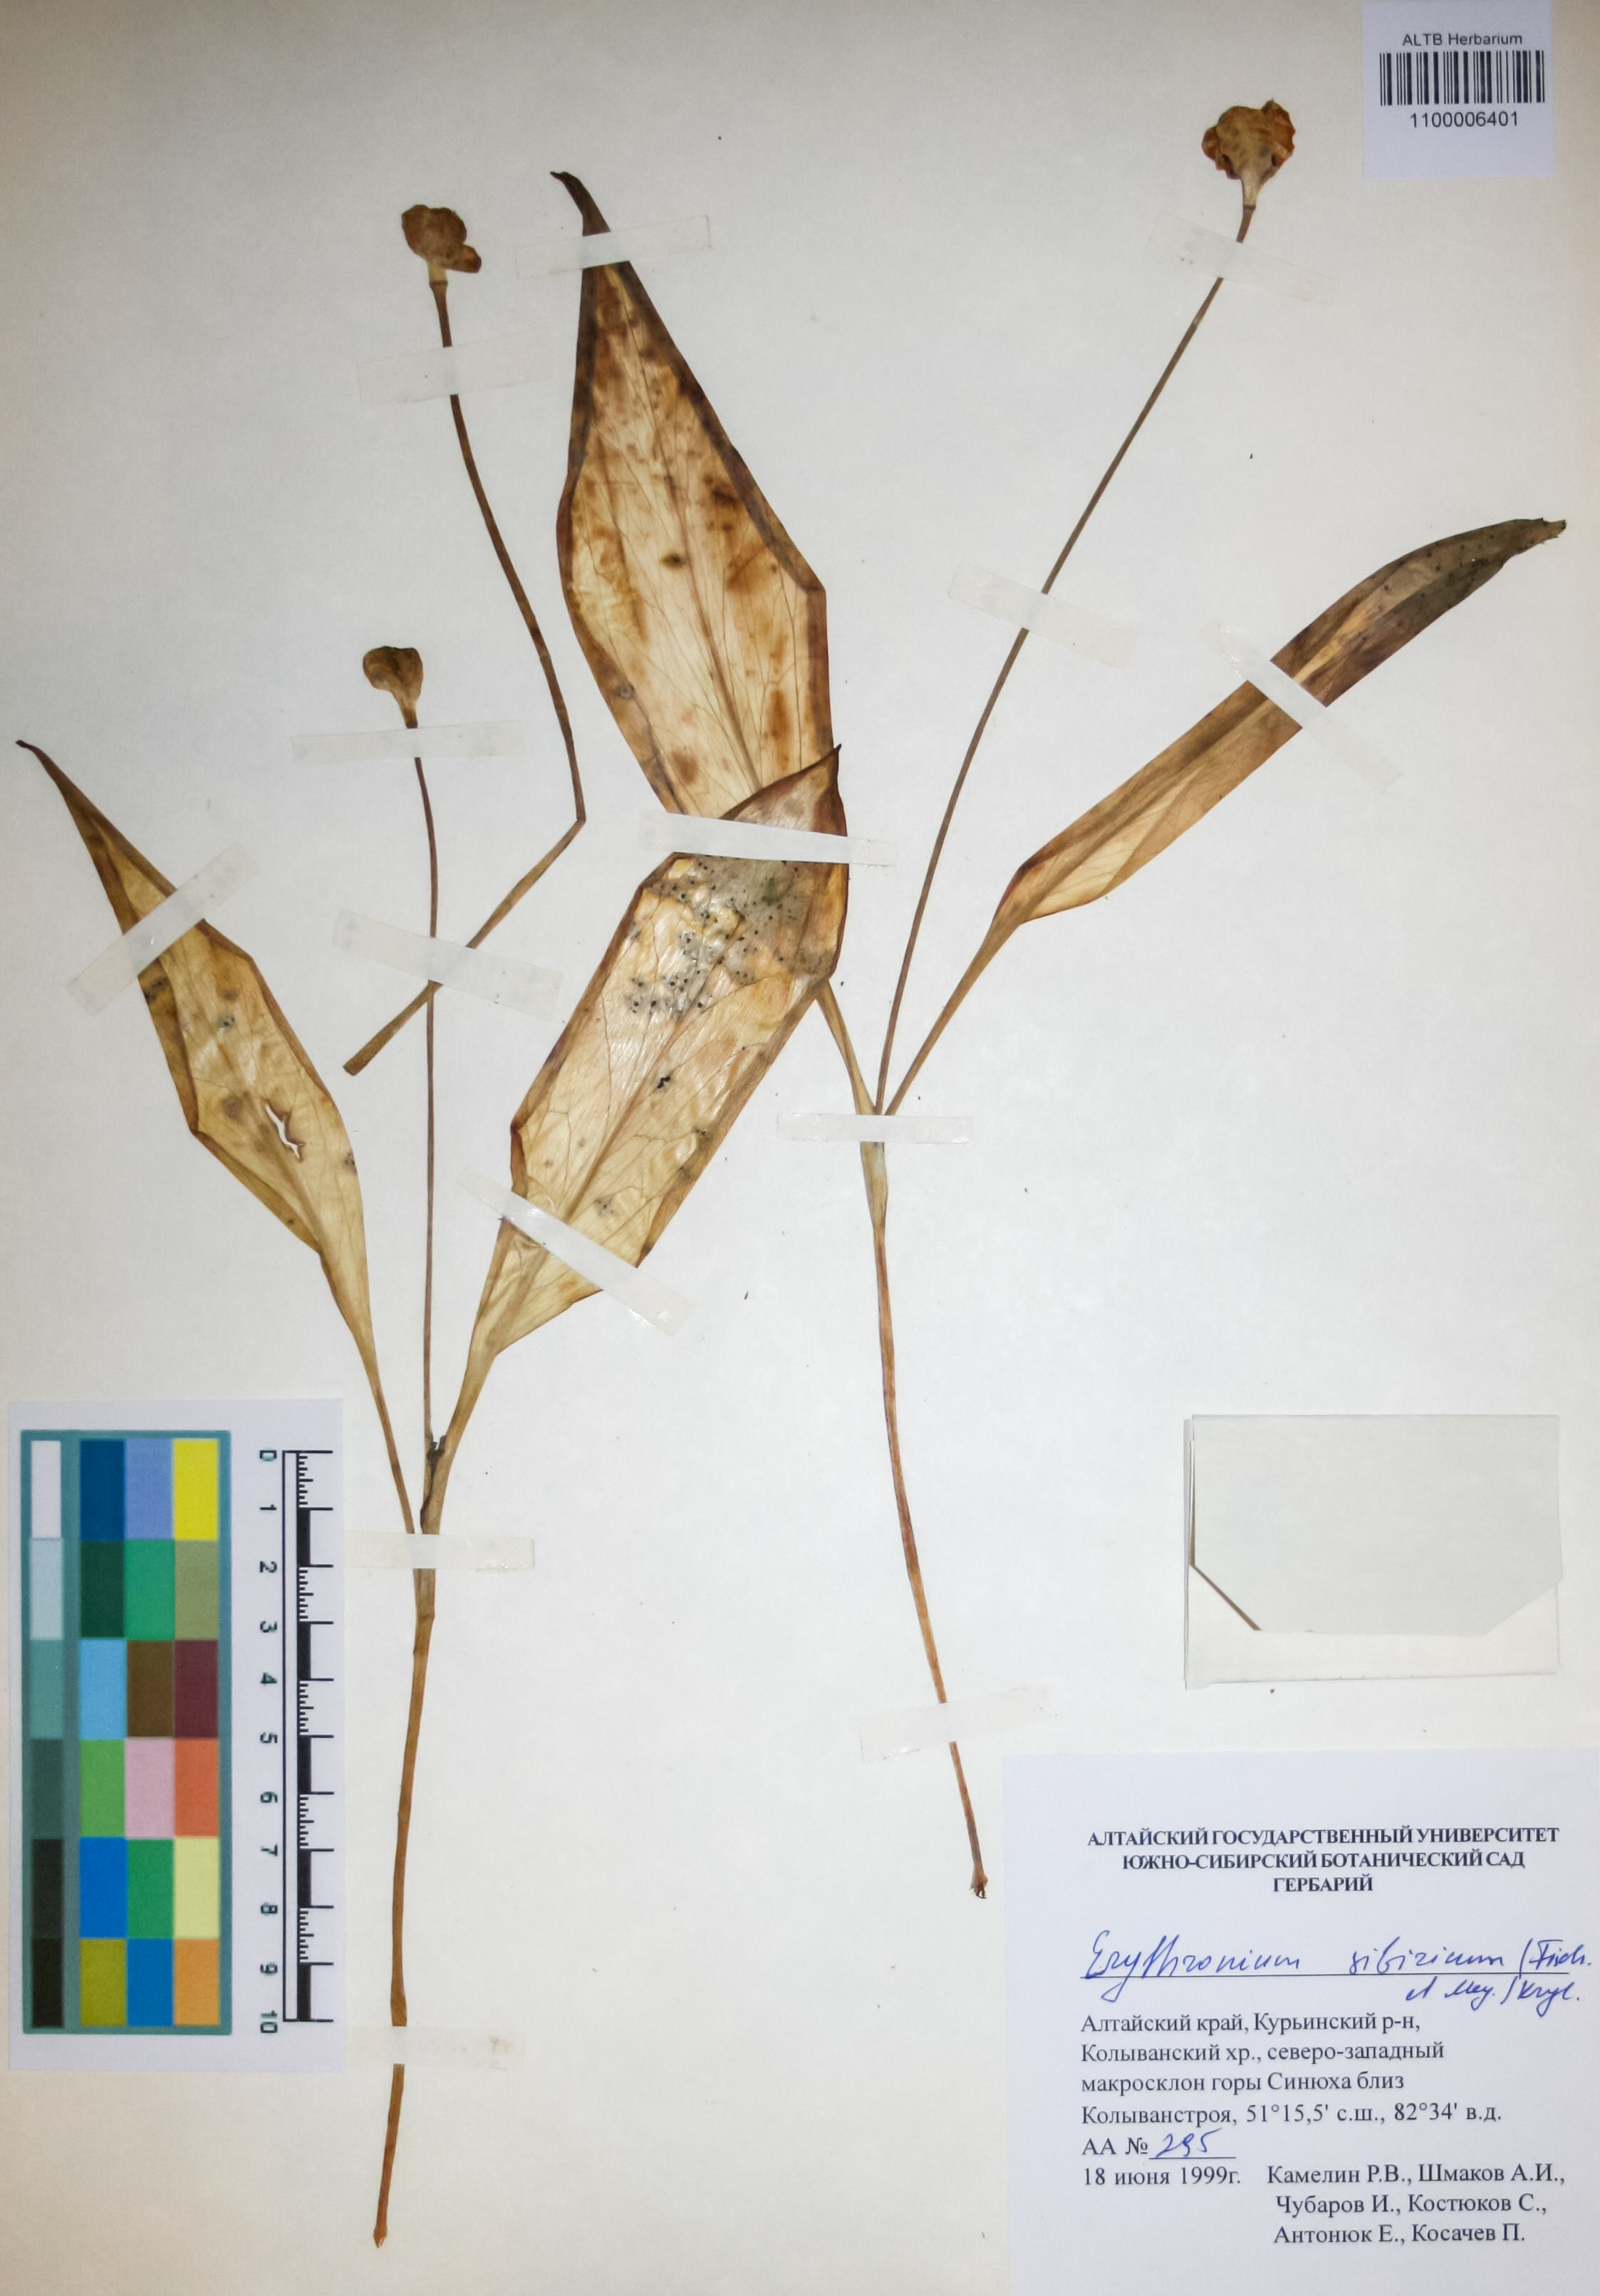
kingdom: Plantae
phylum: Tracheophyta
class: Liliopsida
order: Liliales
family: Liliaceae
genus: Erythronium
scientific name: Erythronium sibiricum
